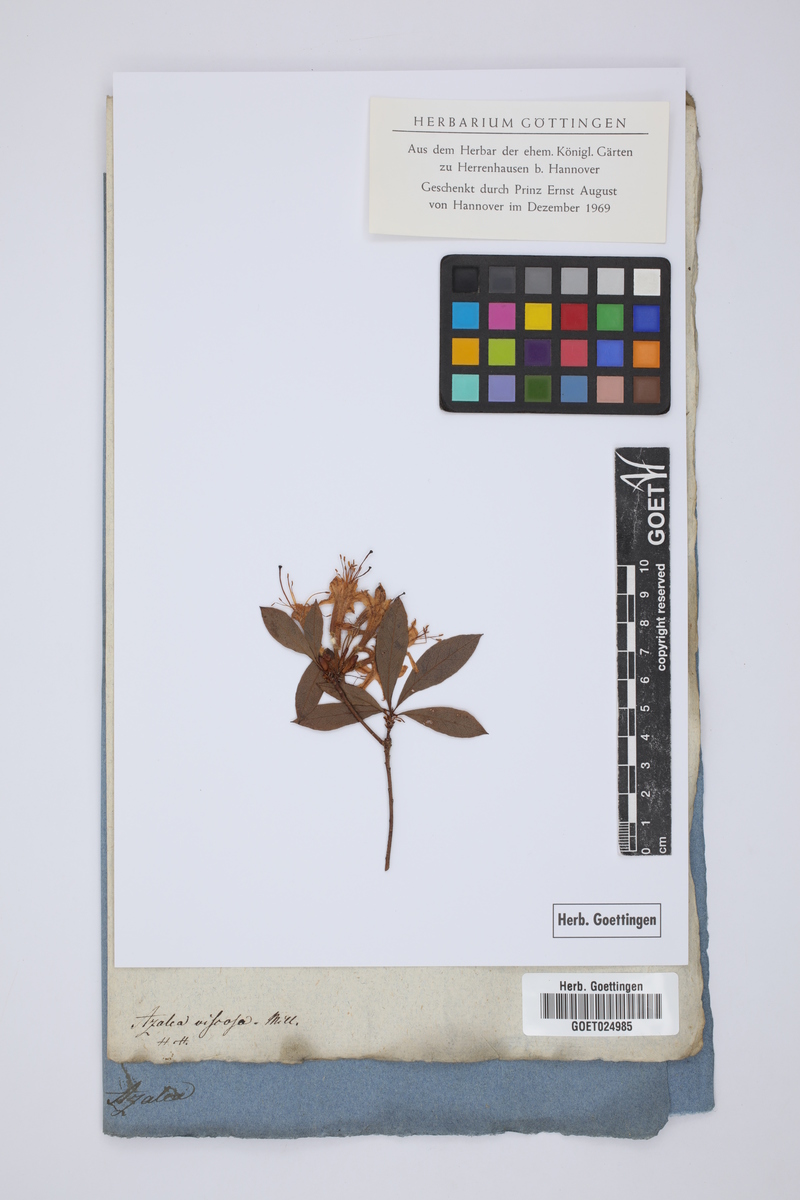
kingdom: Plantae
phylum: Tracheophyta
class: Magnoliopsida
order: Ericales
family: Ericaceae
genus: Rhododendron
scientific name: Rhododendron viscosum
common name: Clammy azalea
